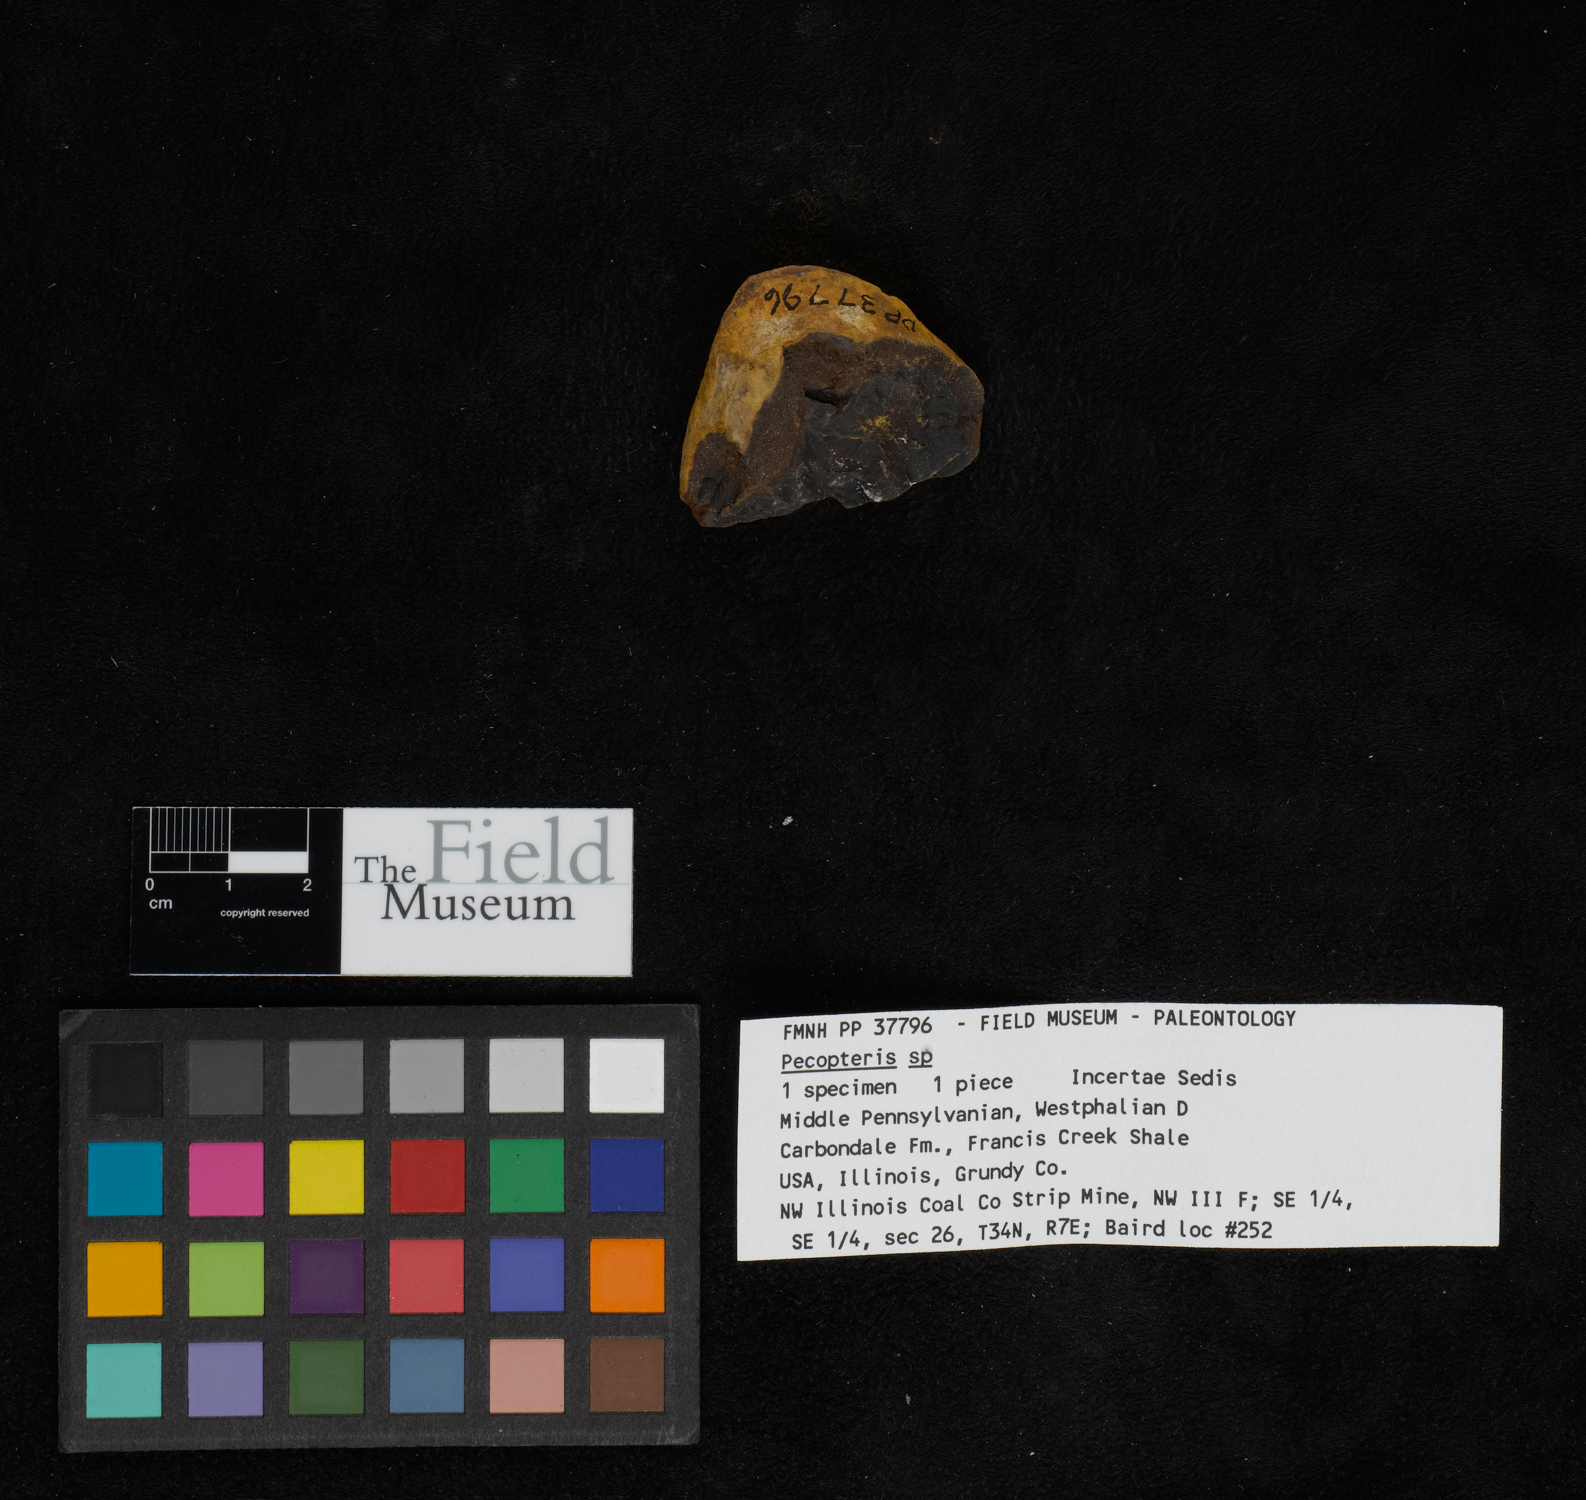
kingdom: Plantae
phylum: Tracheophyta
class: Polypodiopsida
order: Marattiales
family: Asterothecaceae
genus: Pecopteris
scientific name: Pecopteris
